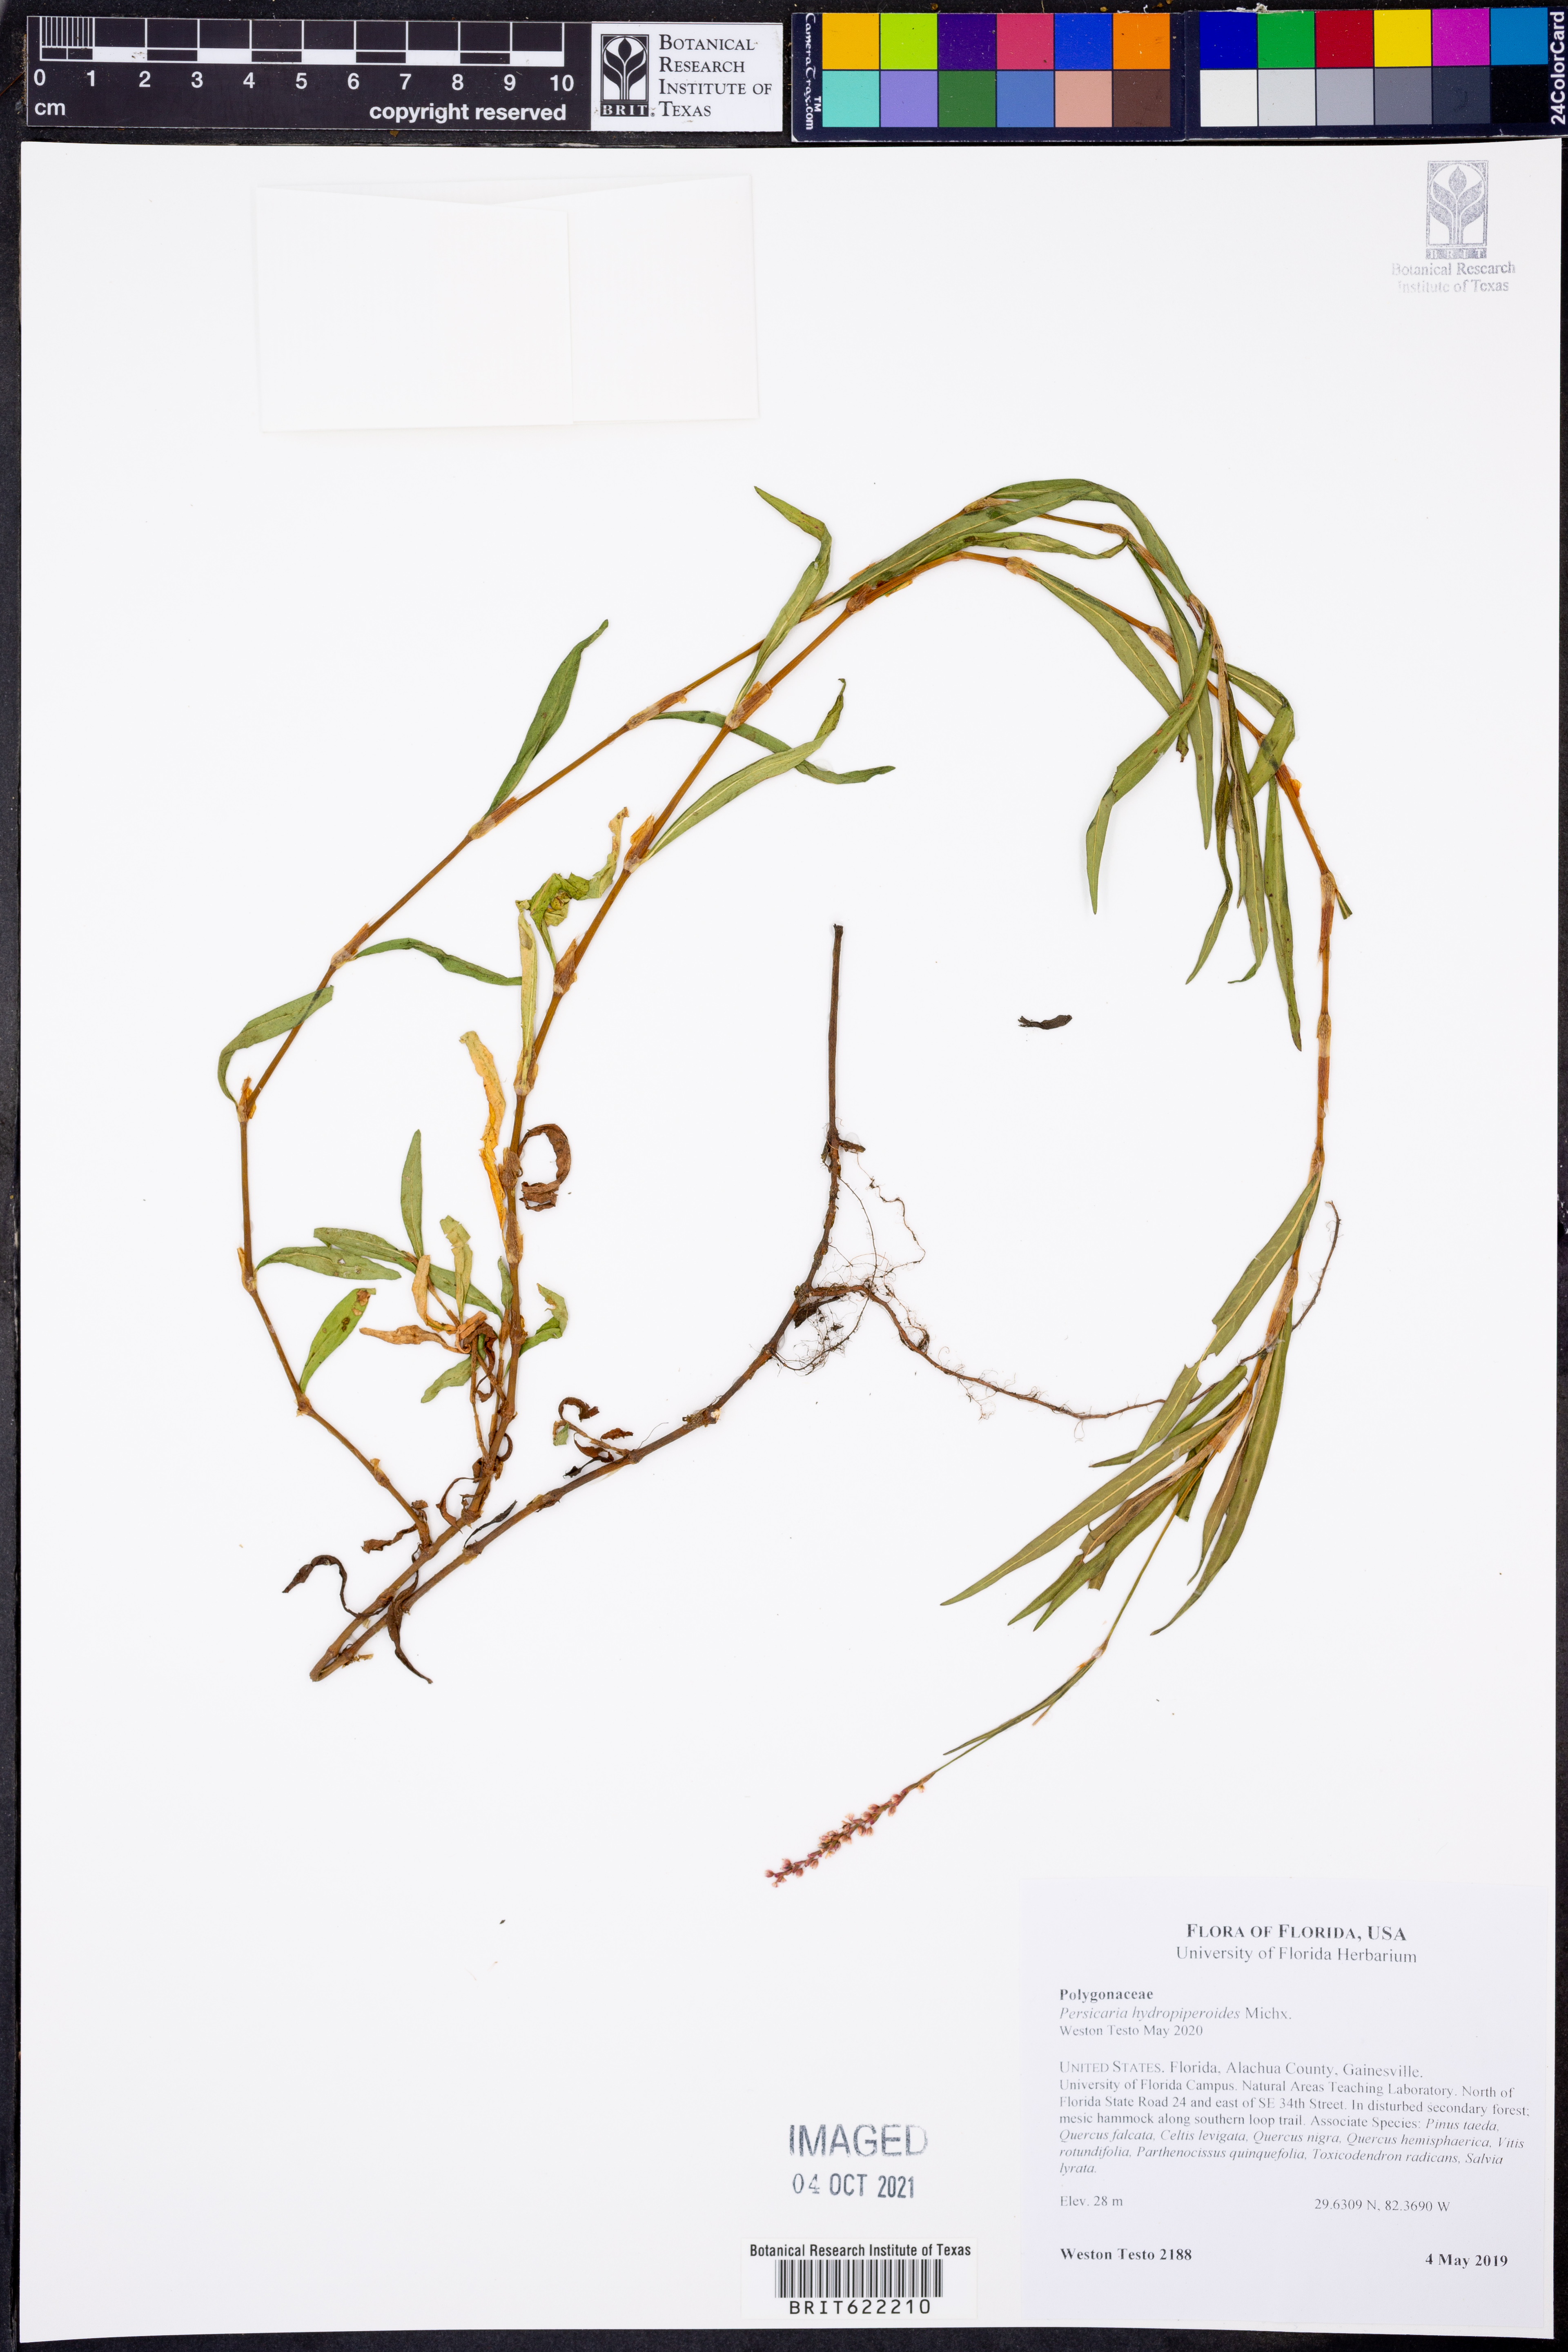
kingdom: Plantae
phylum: Tracheophyta
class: Magnoliopsida
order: Caryophyllales
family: Polygonaceae
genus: Persicaria
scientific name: Persicaria hydropiperoides
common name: Swamp smartweed
